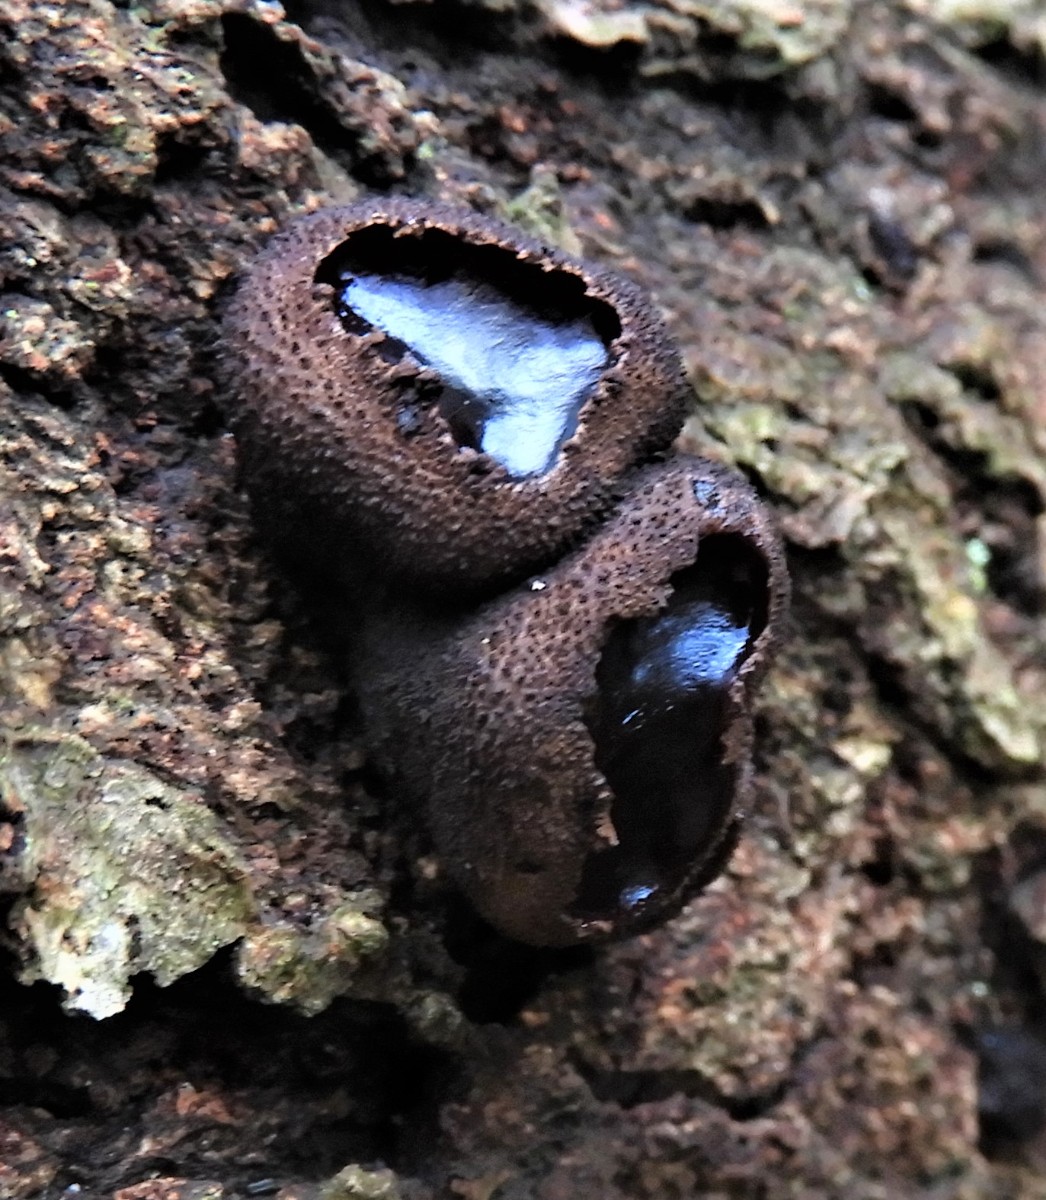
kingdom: Fungi
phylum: Ascomycota
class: Leotiomycetes
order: Phacidiales
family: Phacidiaceae
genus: Bulgaria
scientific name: Bulgaria inquinans
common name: afsmittende topsvamp
